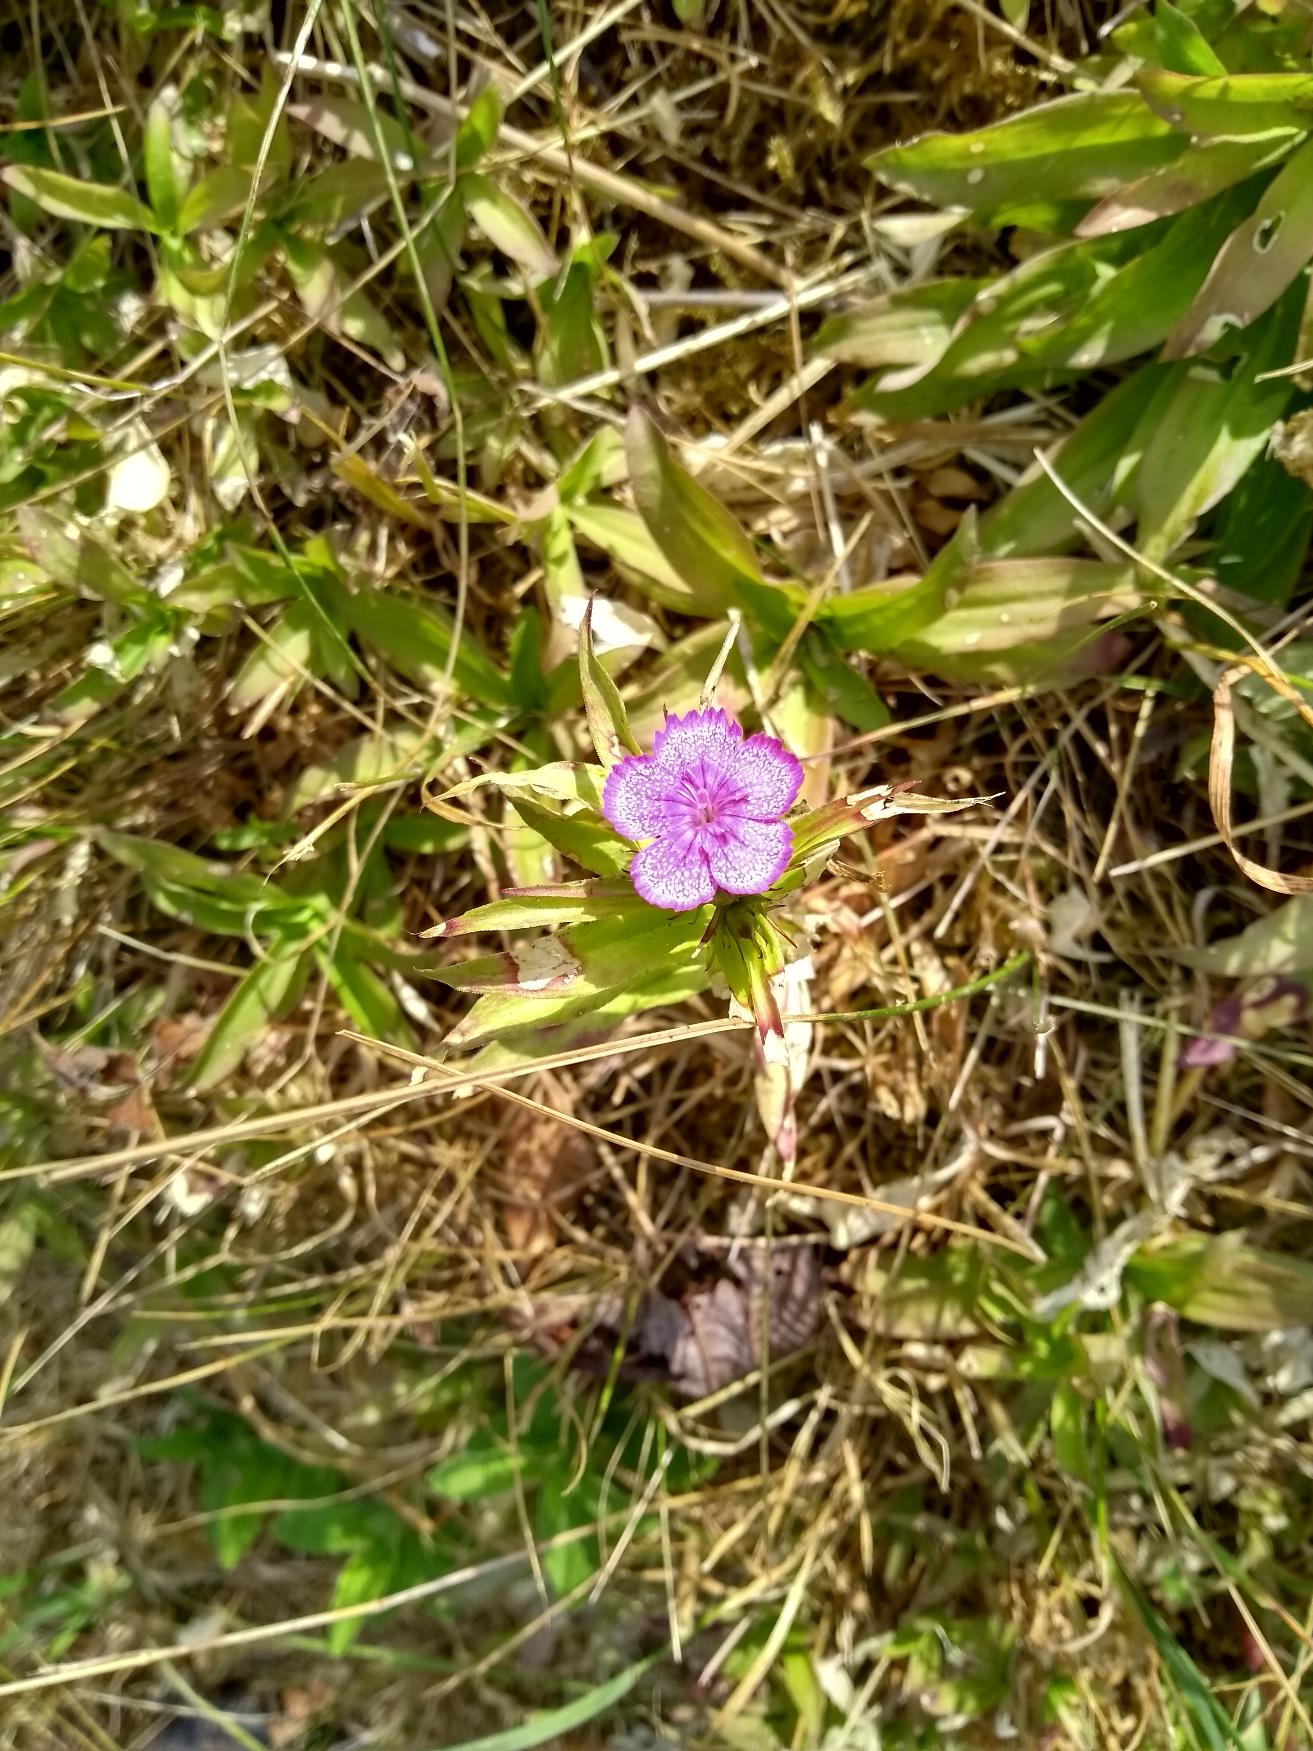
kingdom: Plantae
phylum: Tracheophyta
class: Magnoliopsida
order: Caryophyllales
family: Caryophyllaceae
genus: Dianthus
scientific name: Dianthus barbatus
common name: Studenter-nellike
